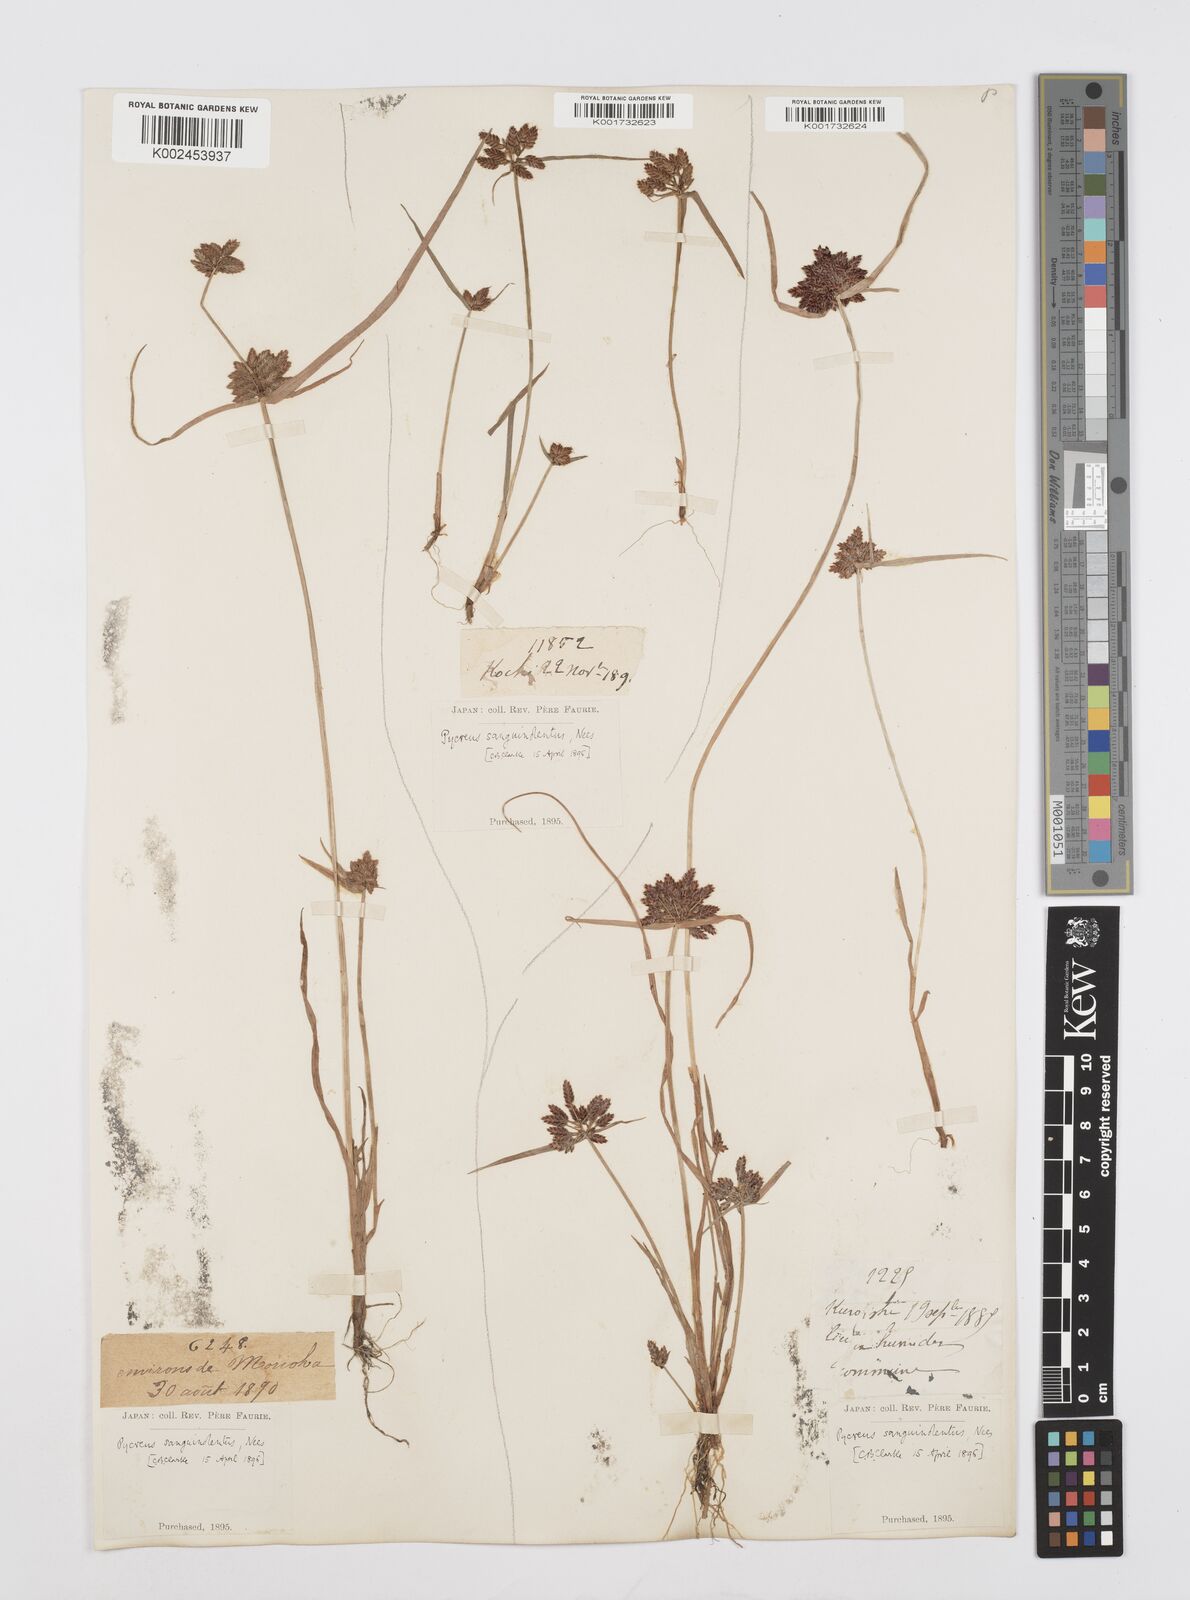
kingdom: Plantae
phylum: Tracheophyta
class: Liliopsida
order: Poales
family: Cyperaceae
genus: Cyperus
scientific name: Cyperus sanguinolentus
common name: Purpleglume flatsedge
